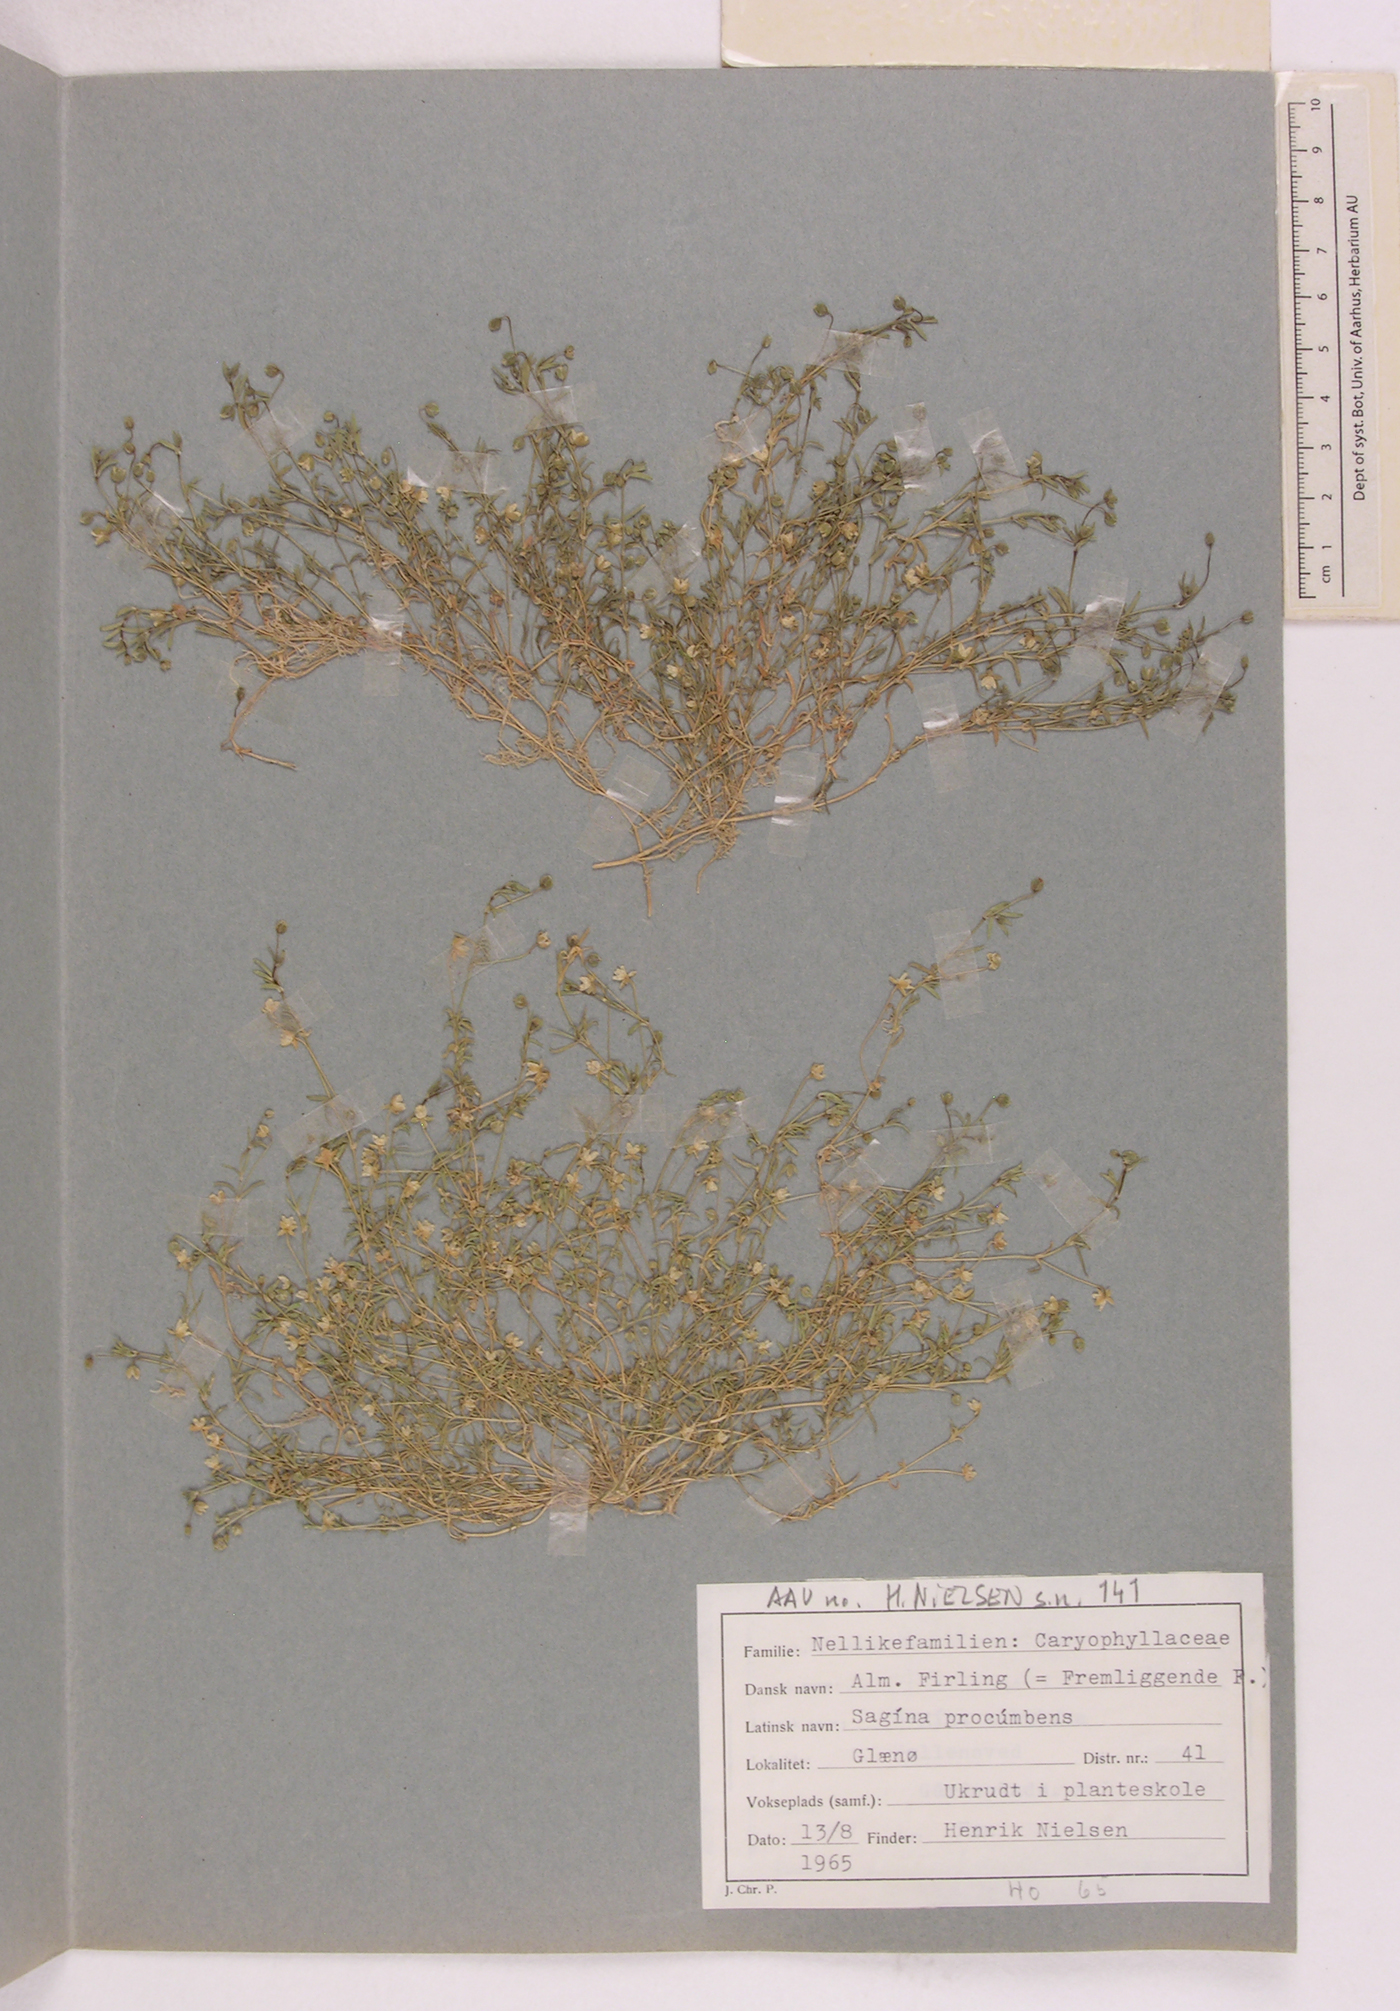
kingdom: Plantae
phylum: Tracheophyta
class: Magnoliopsida
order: Caryophyllales
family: Caryophyllaceae
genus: Sagina
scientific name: Sagina procumbens
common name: Procumbent pearlwort
